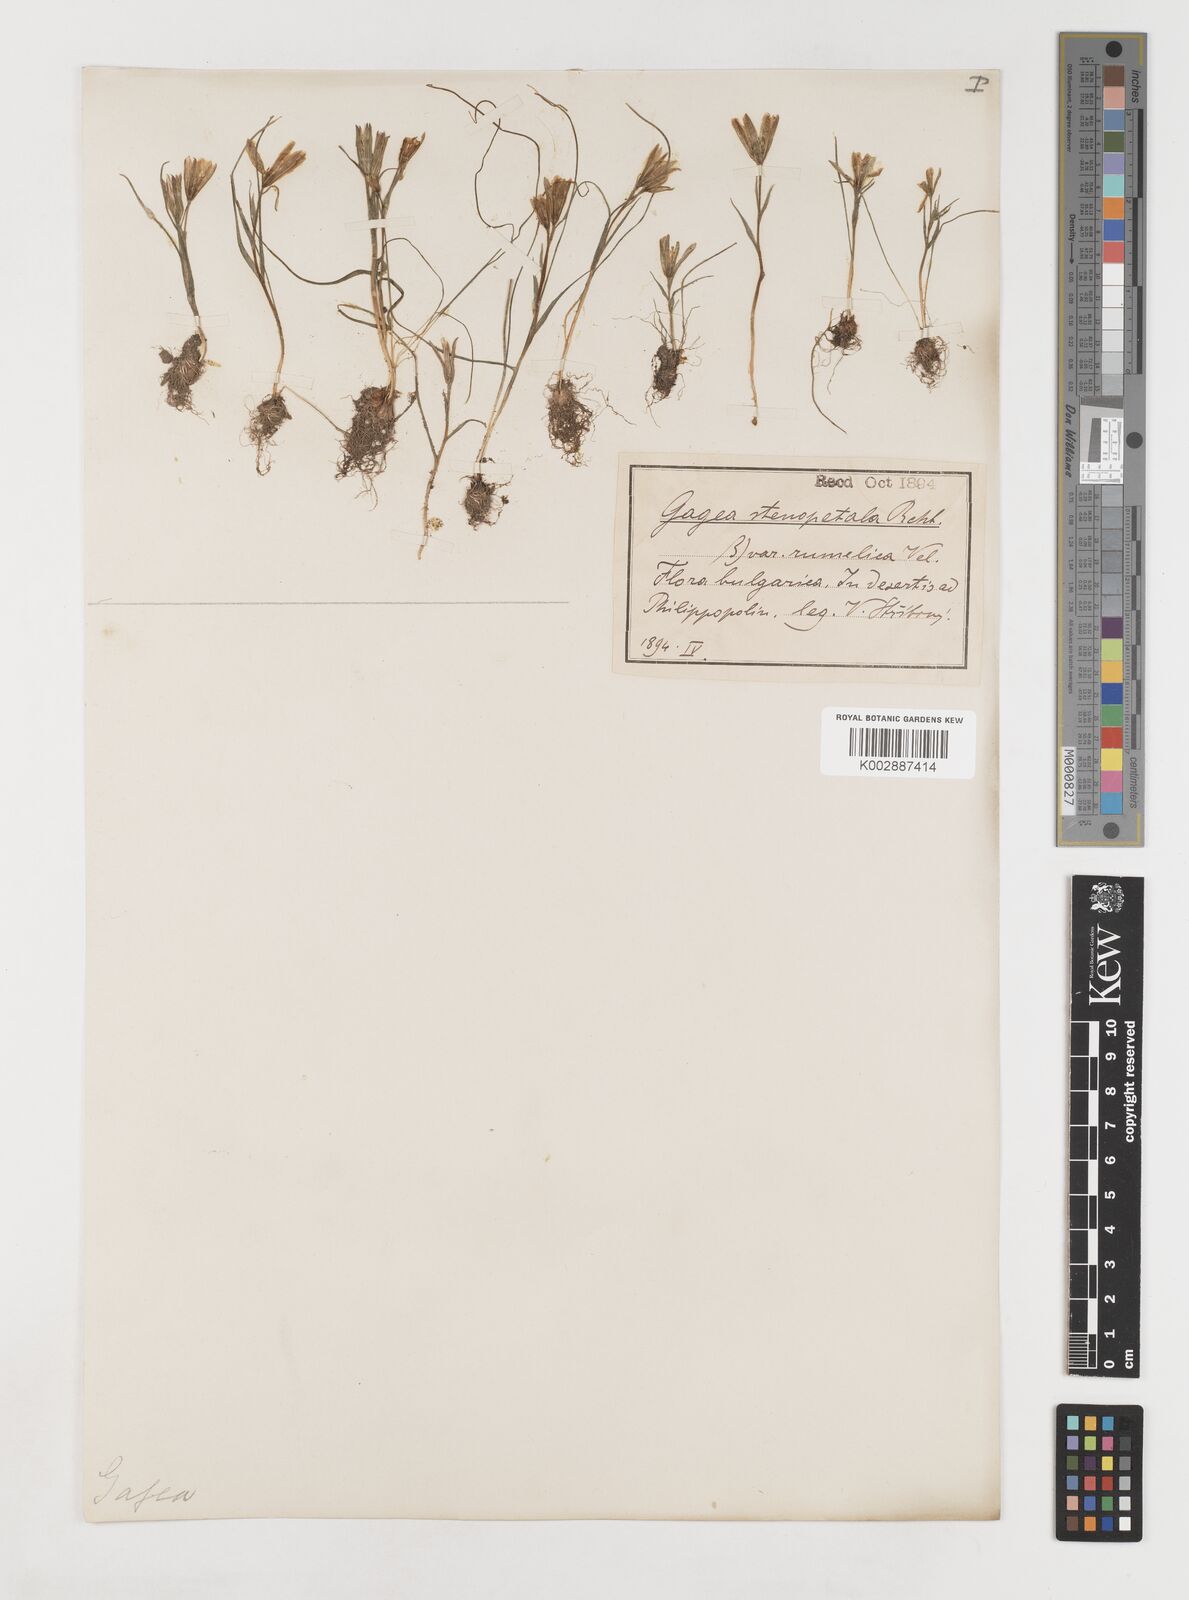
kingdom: Plantae
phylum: Tracheophyta
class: Liliopsida
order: Liliales
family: Liliaceae
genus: Gagea
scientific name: Gagea pratensis
